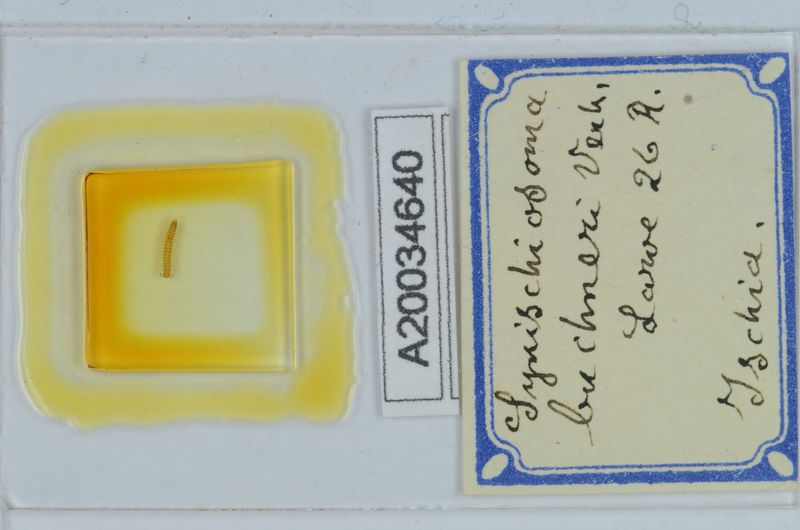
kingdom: Animalia
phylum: Arthropoda
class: Diplopoda
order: Chordeumatida
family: Craspedosomatidae
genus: Synischiosoma
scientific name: Synischiosoma buchneri
